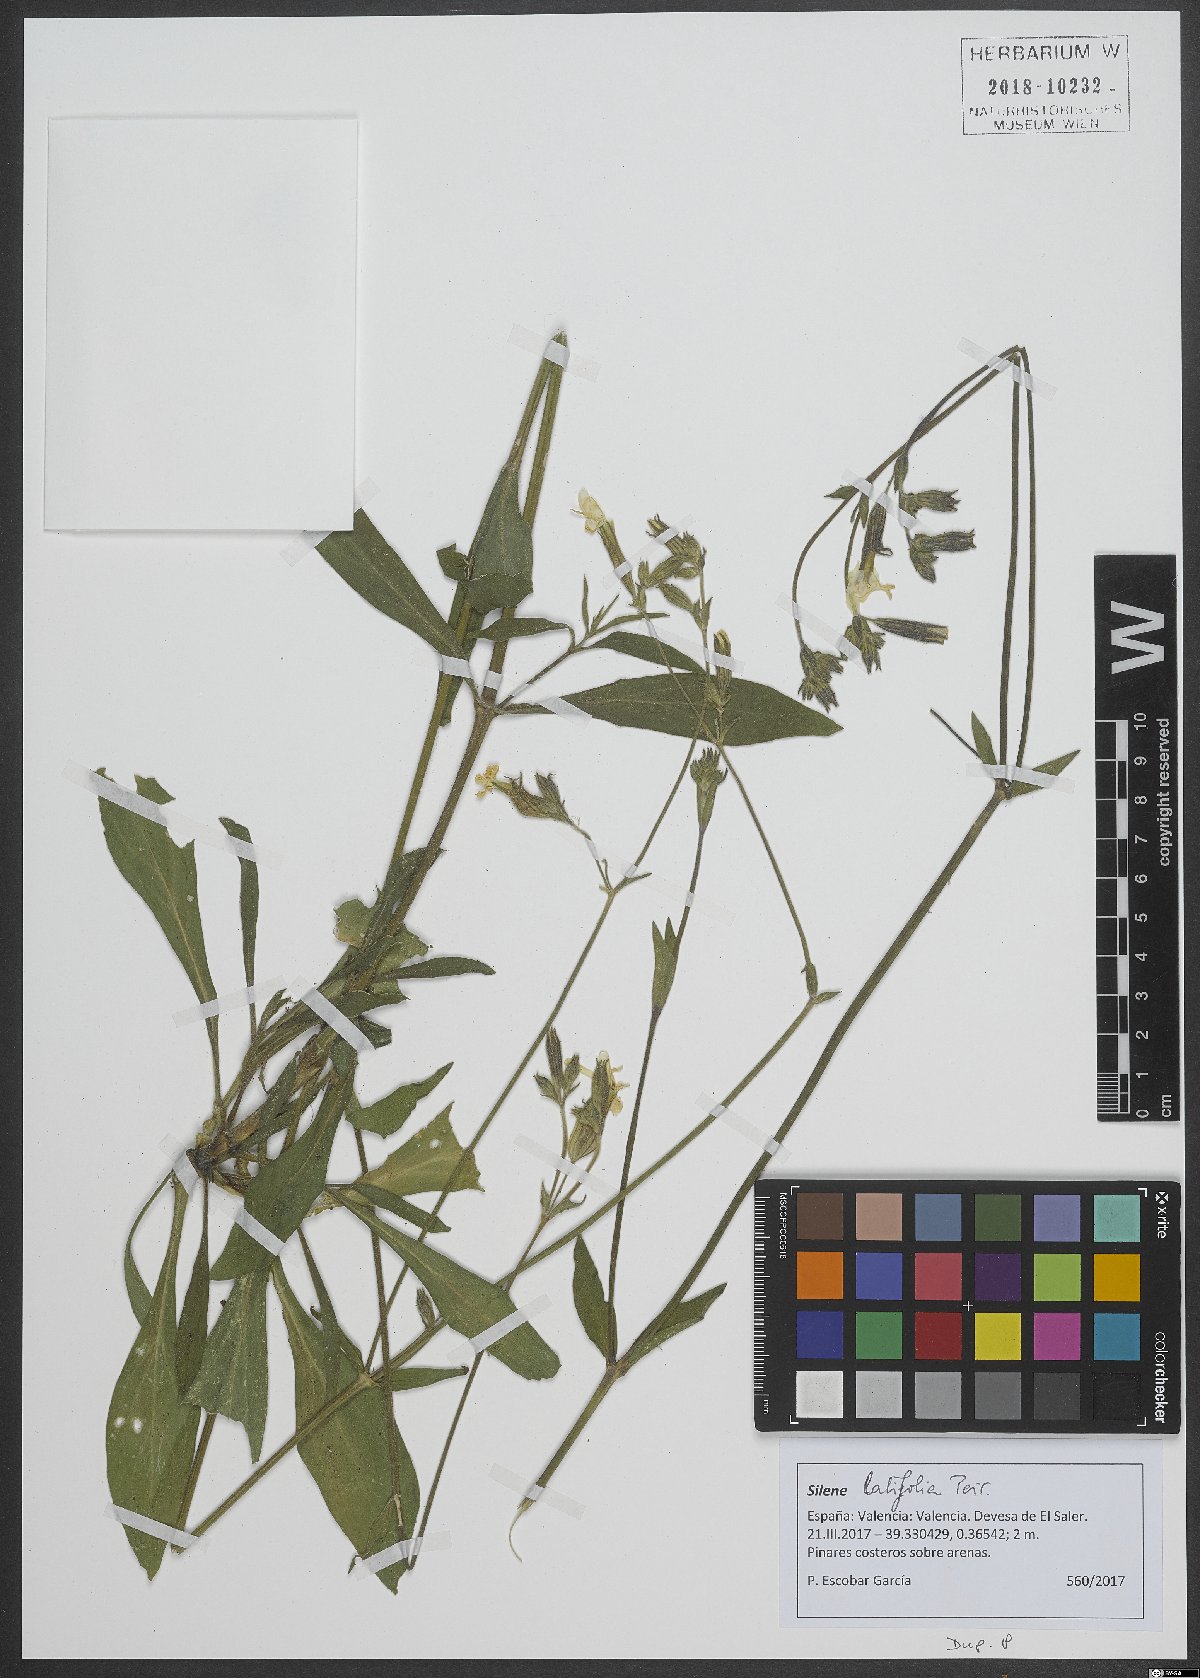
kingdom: Plantae
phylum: Tracheophyta
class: Magnoliopsida
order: Caryophyllales
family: Caryophyllaceae
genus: Silene
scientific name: Silene latifolia
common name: White campion
